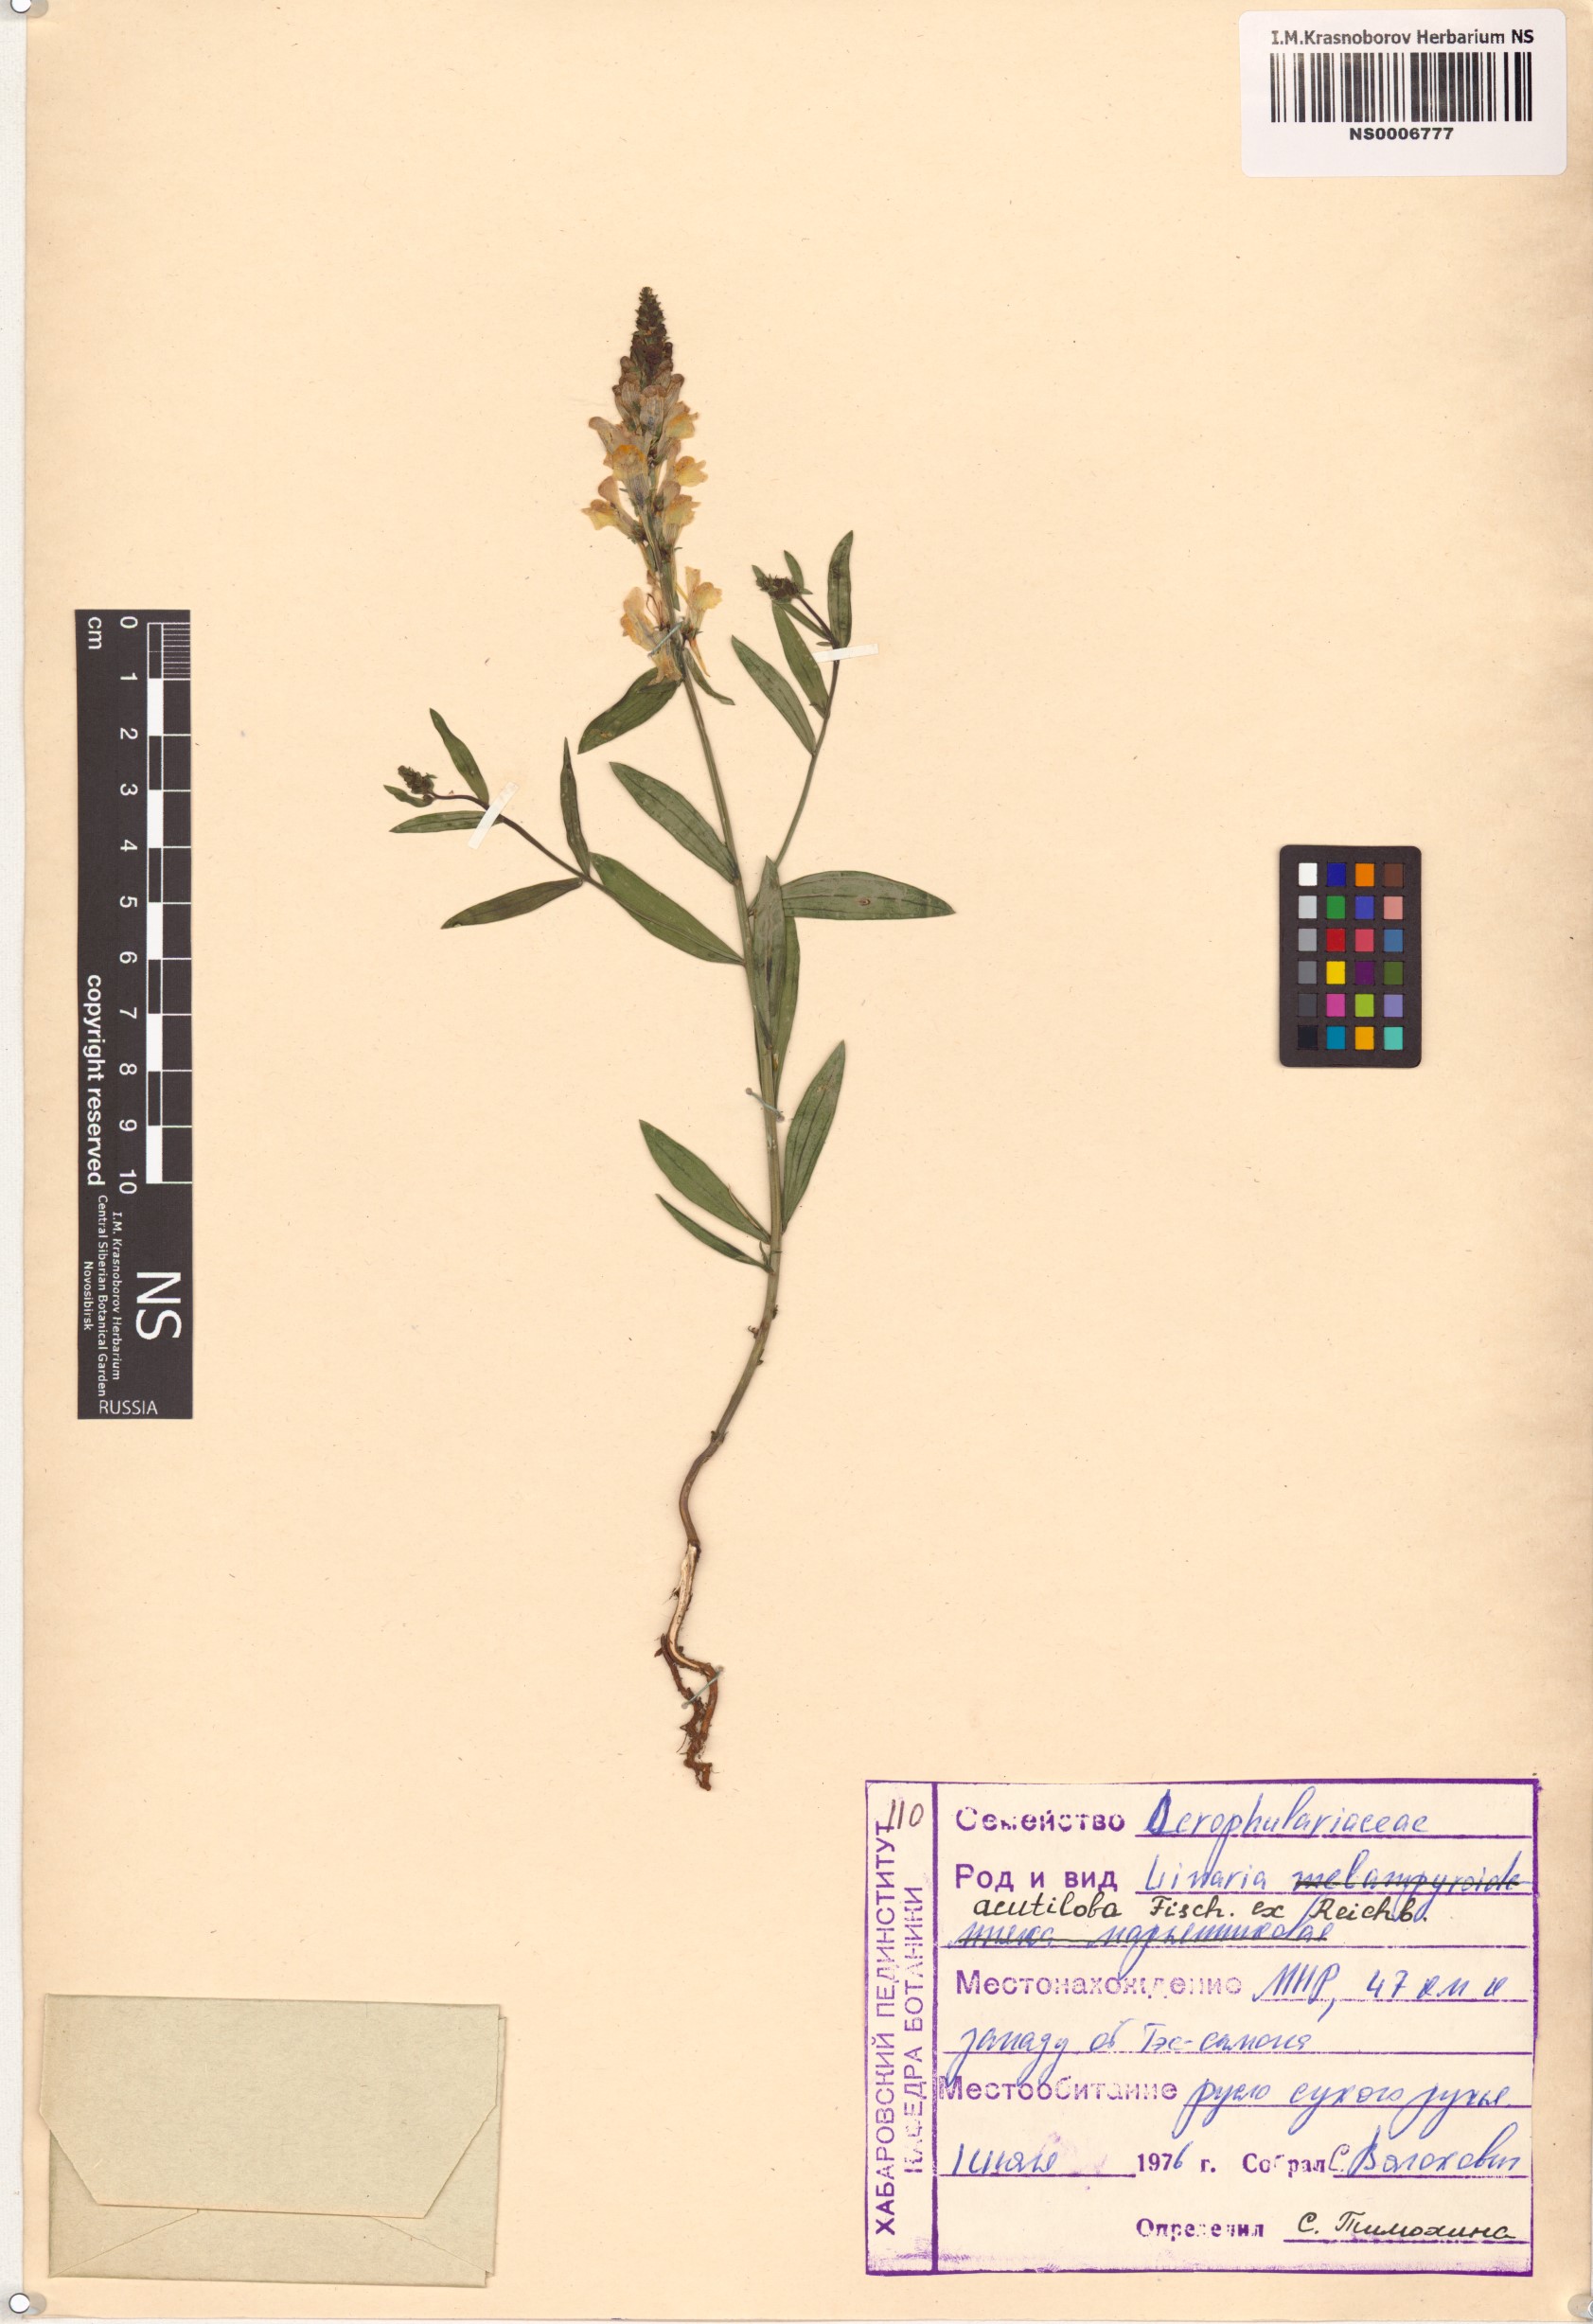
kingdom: Plantae
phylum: Tracheophyta
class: Magnoliopsida
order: Lamiales
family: Plantaginaceae
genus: Linaria
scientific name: Linaria acutiloba
